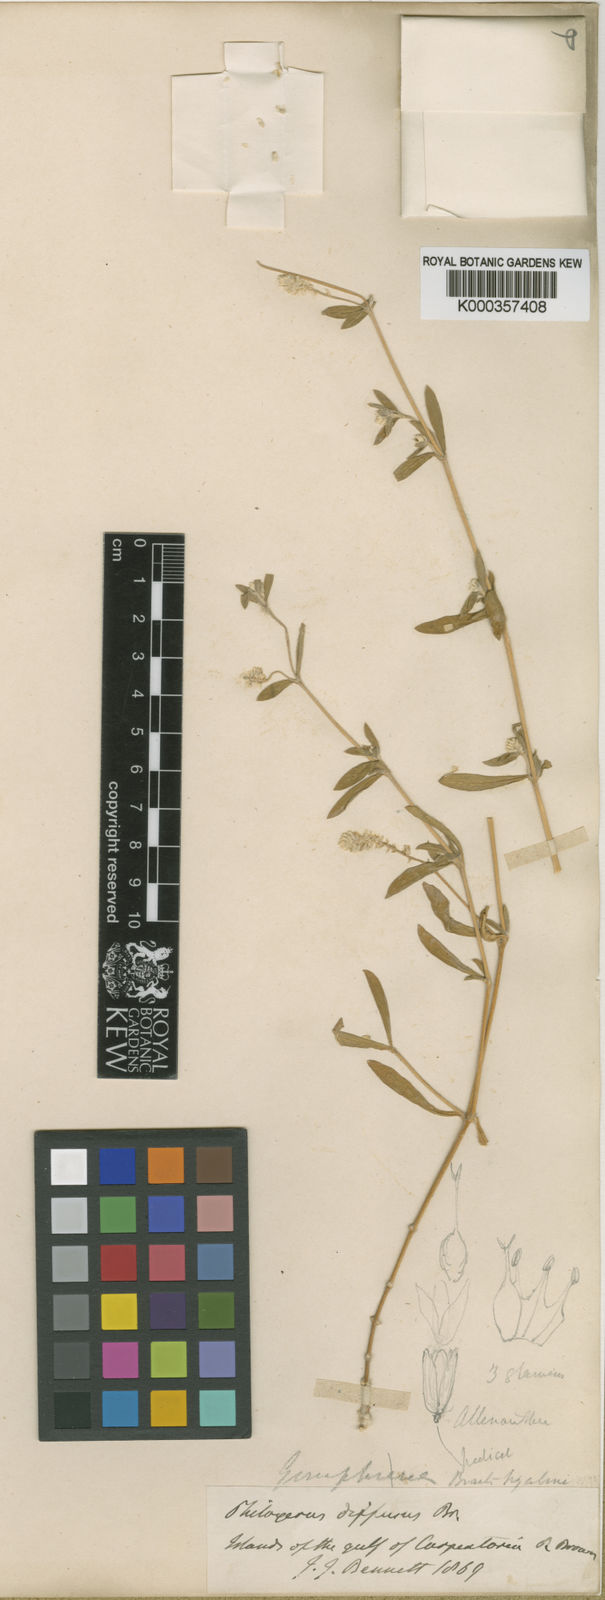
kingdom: Plantae
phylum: Tracheophyta
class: Magnoliopsida
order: Caryophyllales
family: Amaranthaceae
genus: Gomphrena
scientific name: Gomphrena
